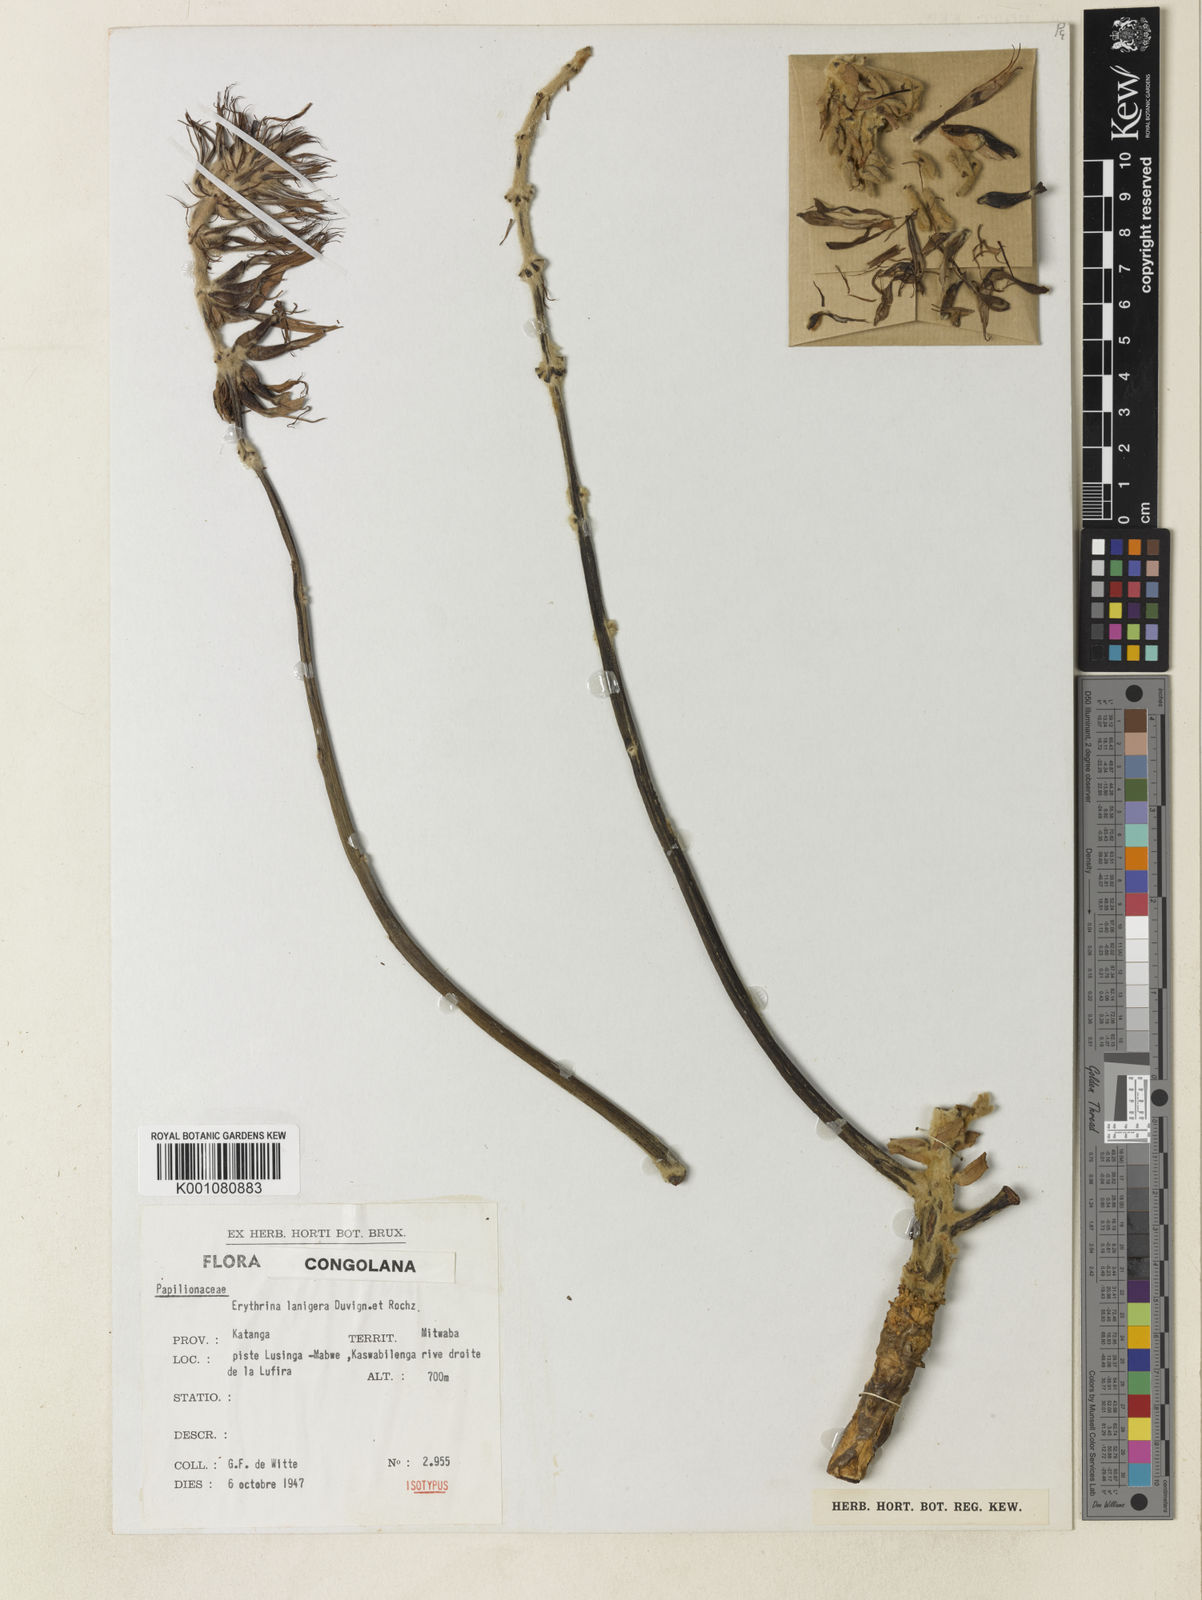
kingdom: Plantae
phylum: Tracheophyta
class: Magnoliopsida
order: Fabales
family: Fabaceae
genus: Erythrina
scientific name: Erythrina lanigera
